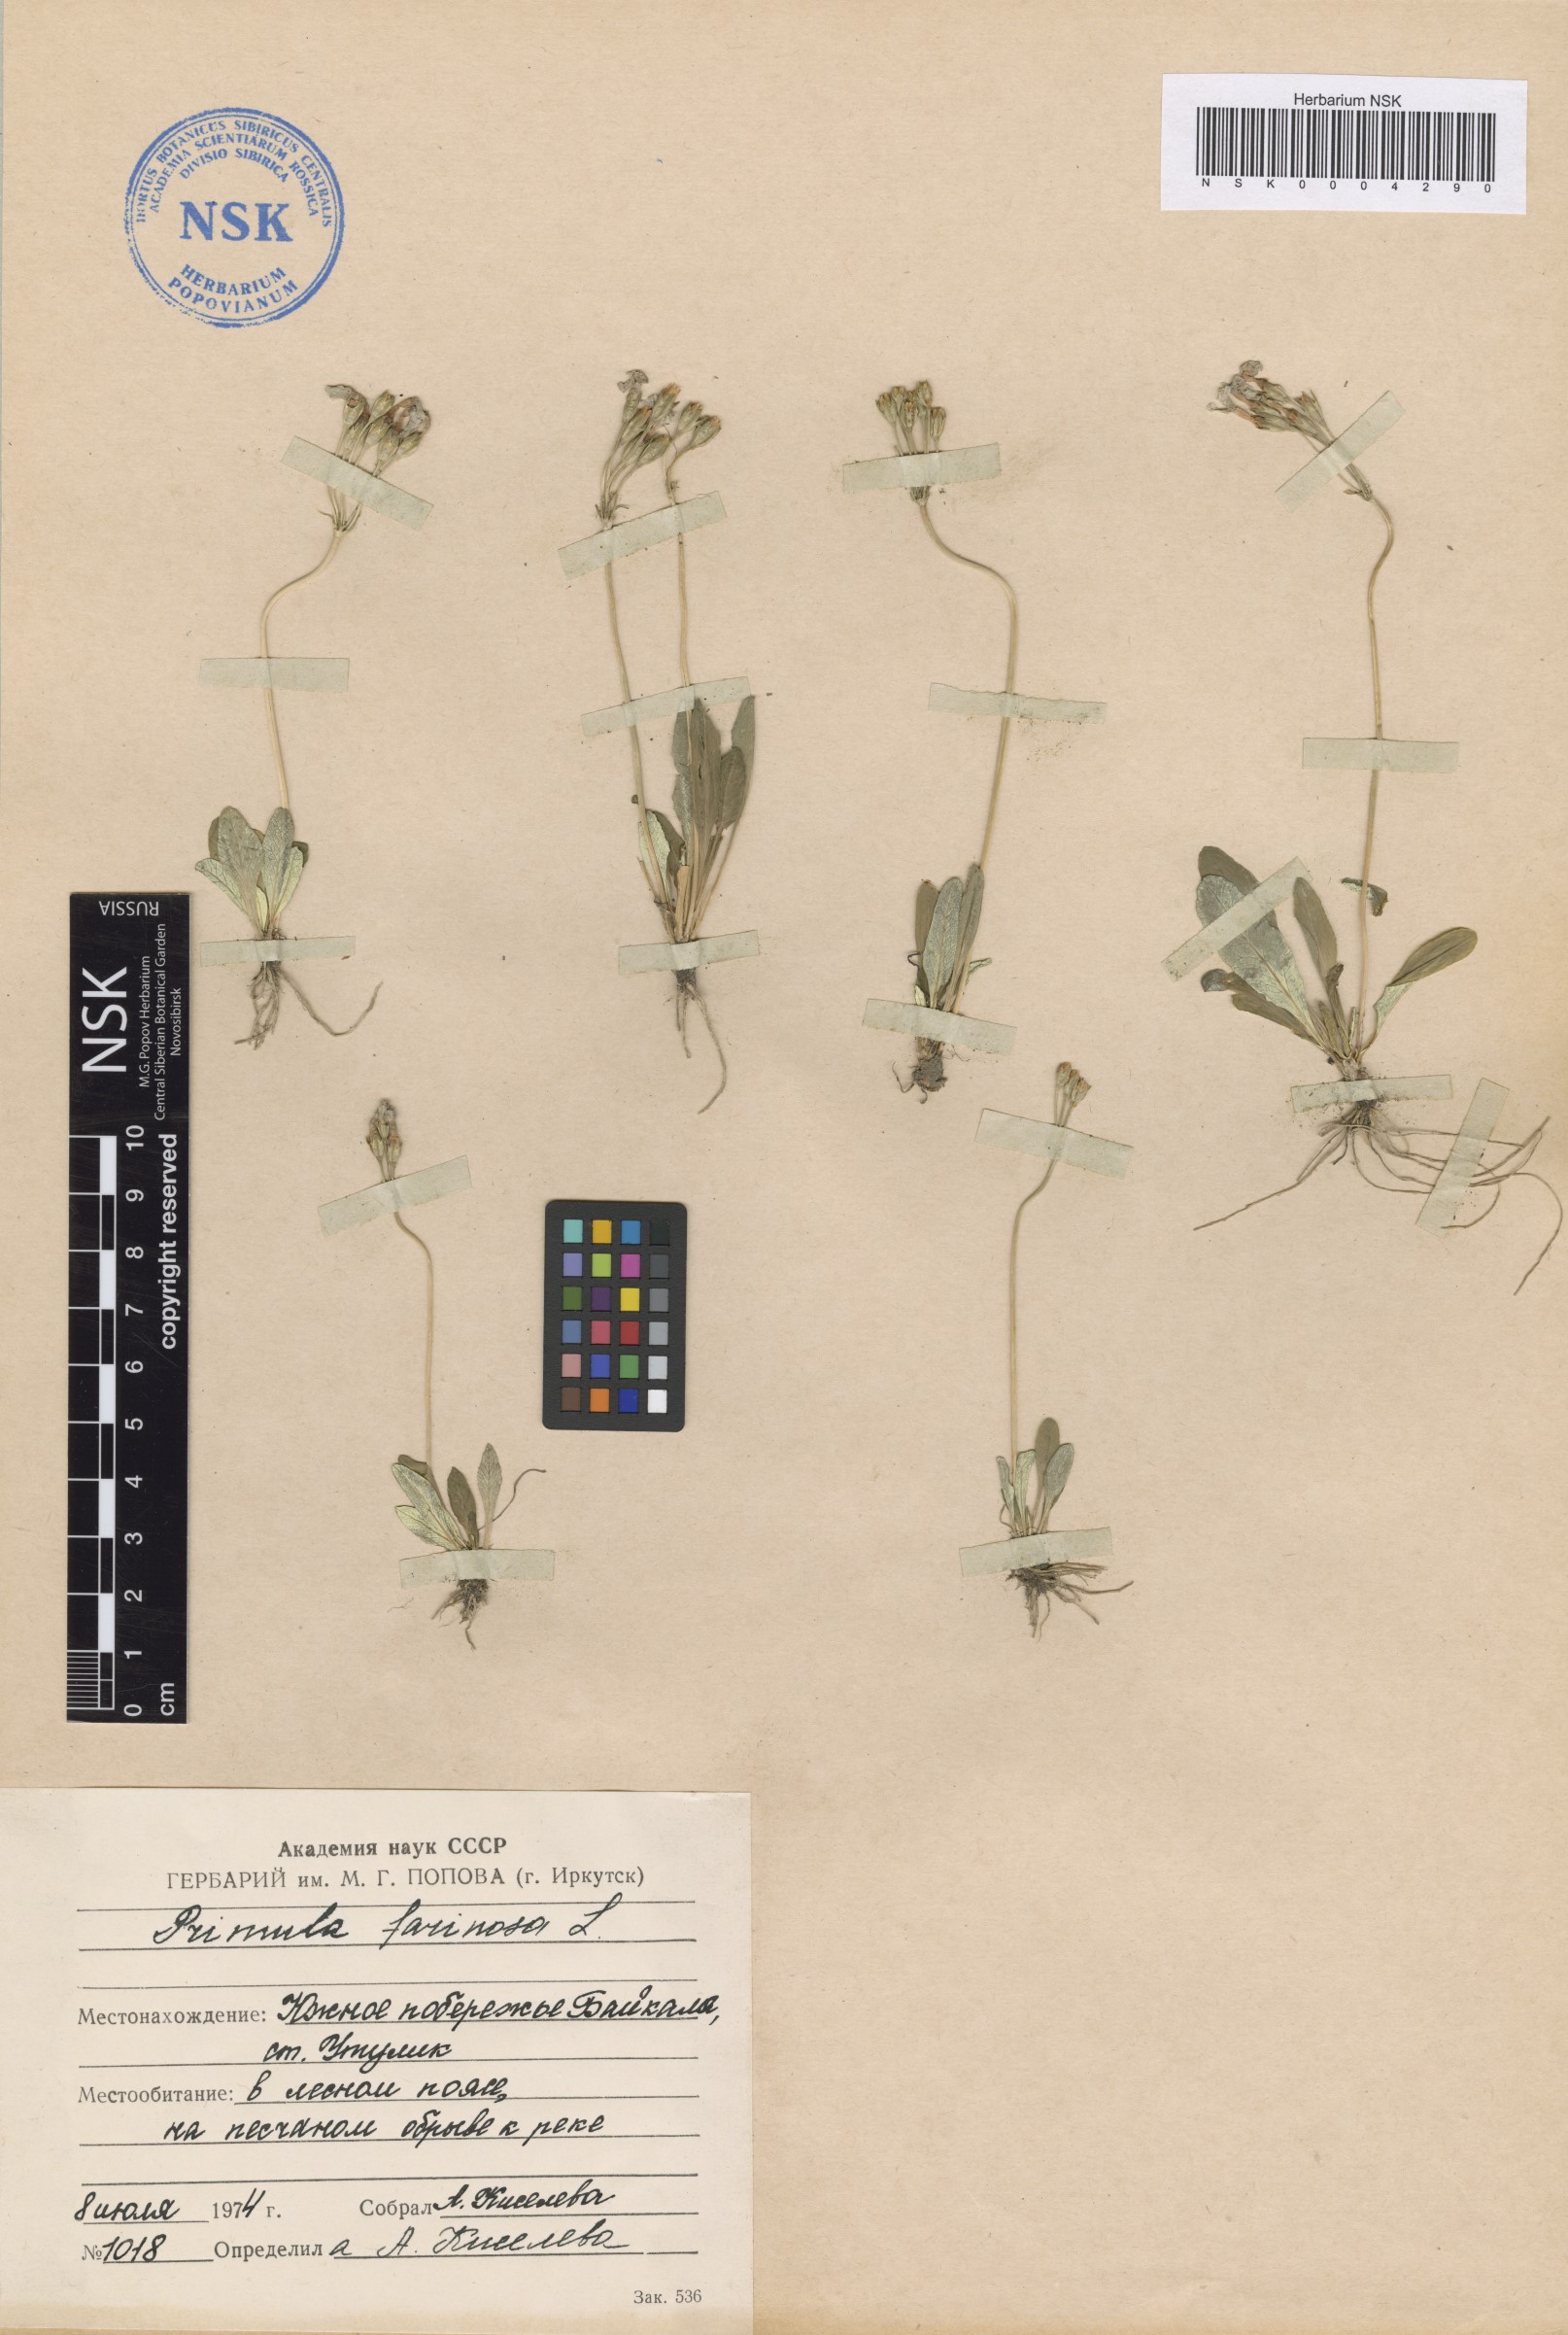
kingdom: Plantae
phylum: Tracheophyta
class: Magnoliopsida
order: Ericales
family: Primulaceae
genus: Primula
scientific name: Primula farinosa
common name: Bird's-eye primrose
